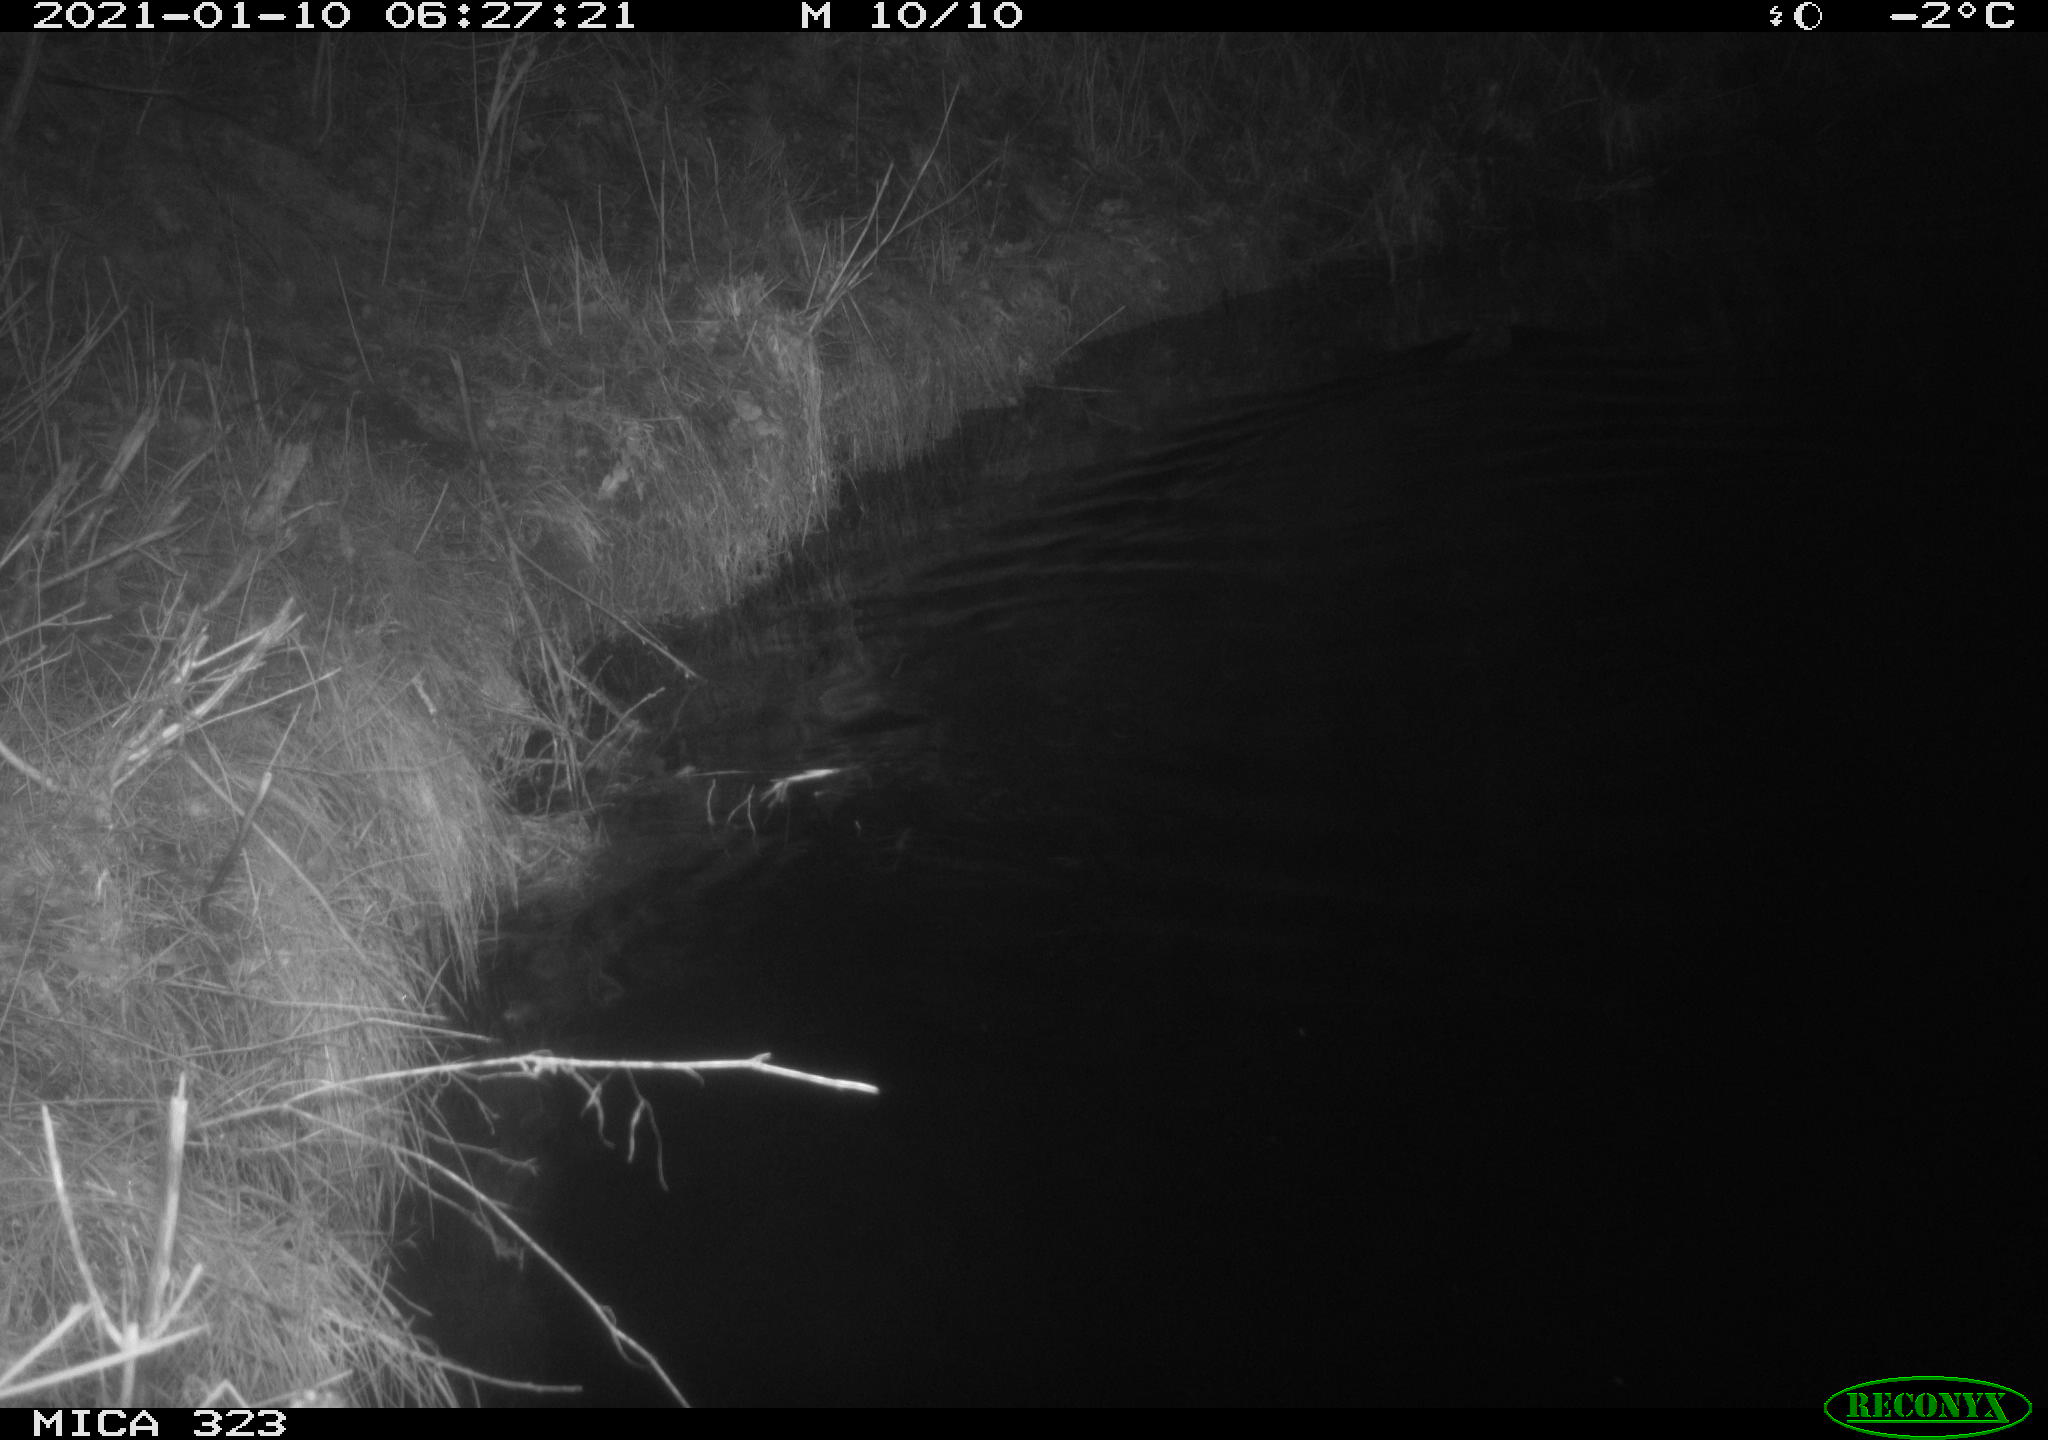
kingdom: Animalia
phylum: Chordata
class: Mammalia
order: Rodentia
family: Myocastoridae
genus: Myocastor
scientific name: Myocastor coypus
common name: Coypu
